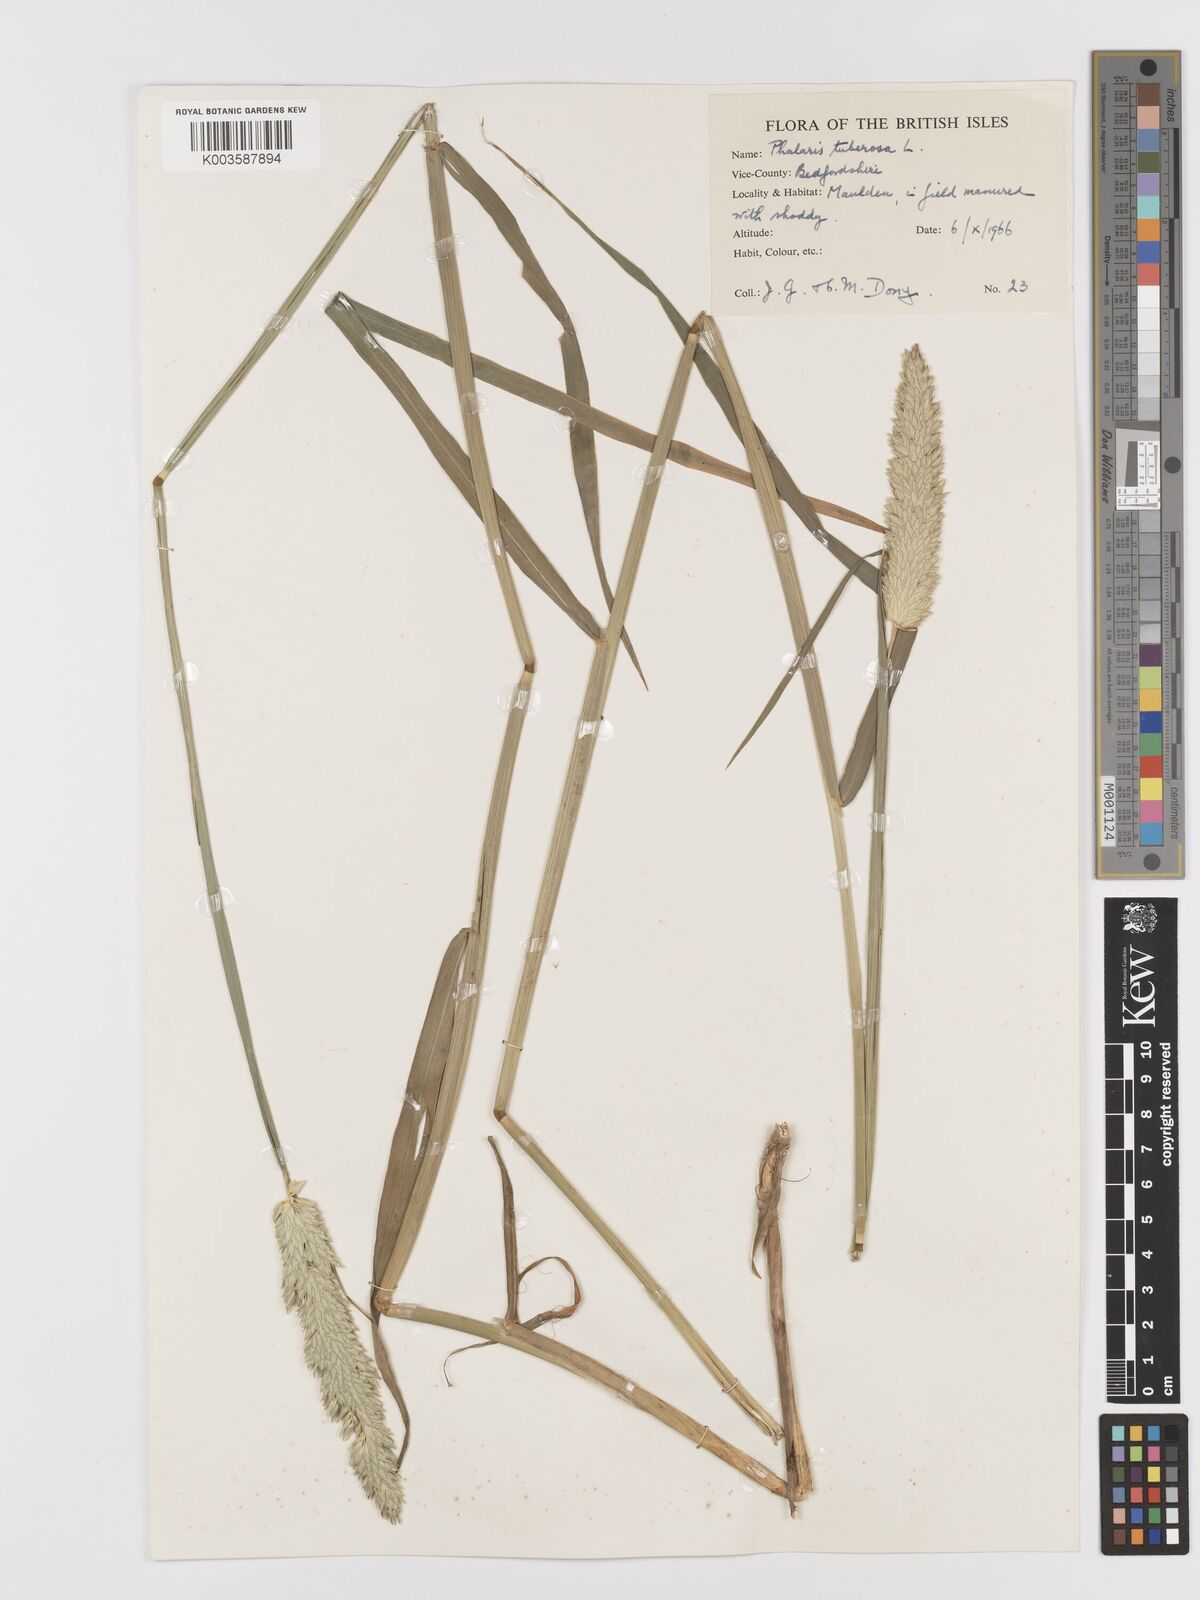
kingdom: Plantae
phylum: Tracheophyta
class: Liliopsida
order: Poales
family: Poaceae
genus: Phalaris
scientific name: Phalaris
